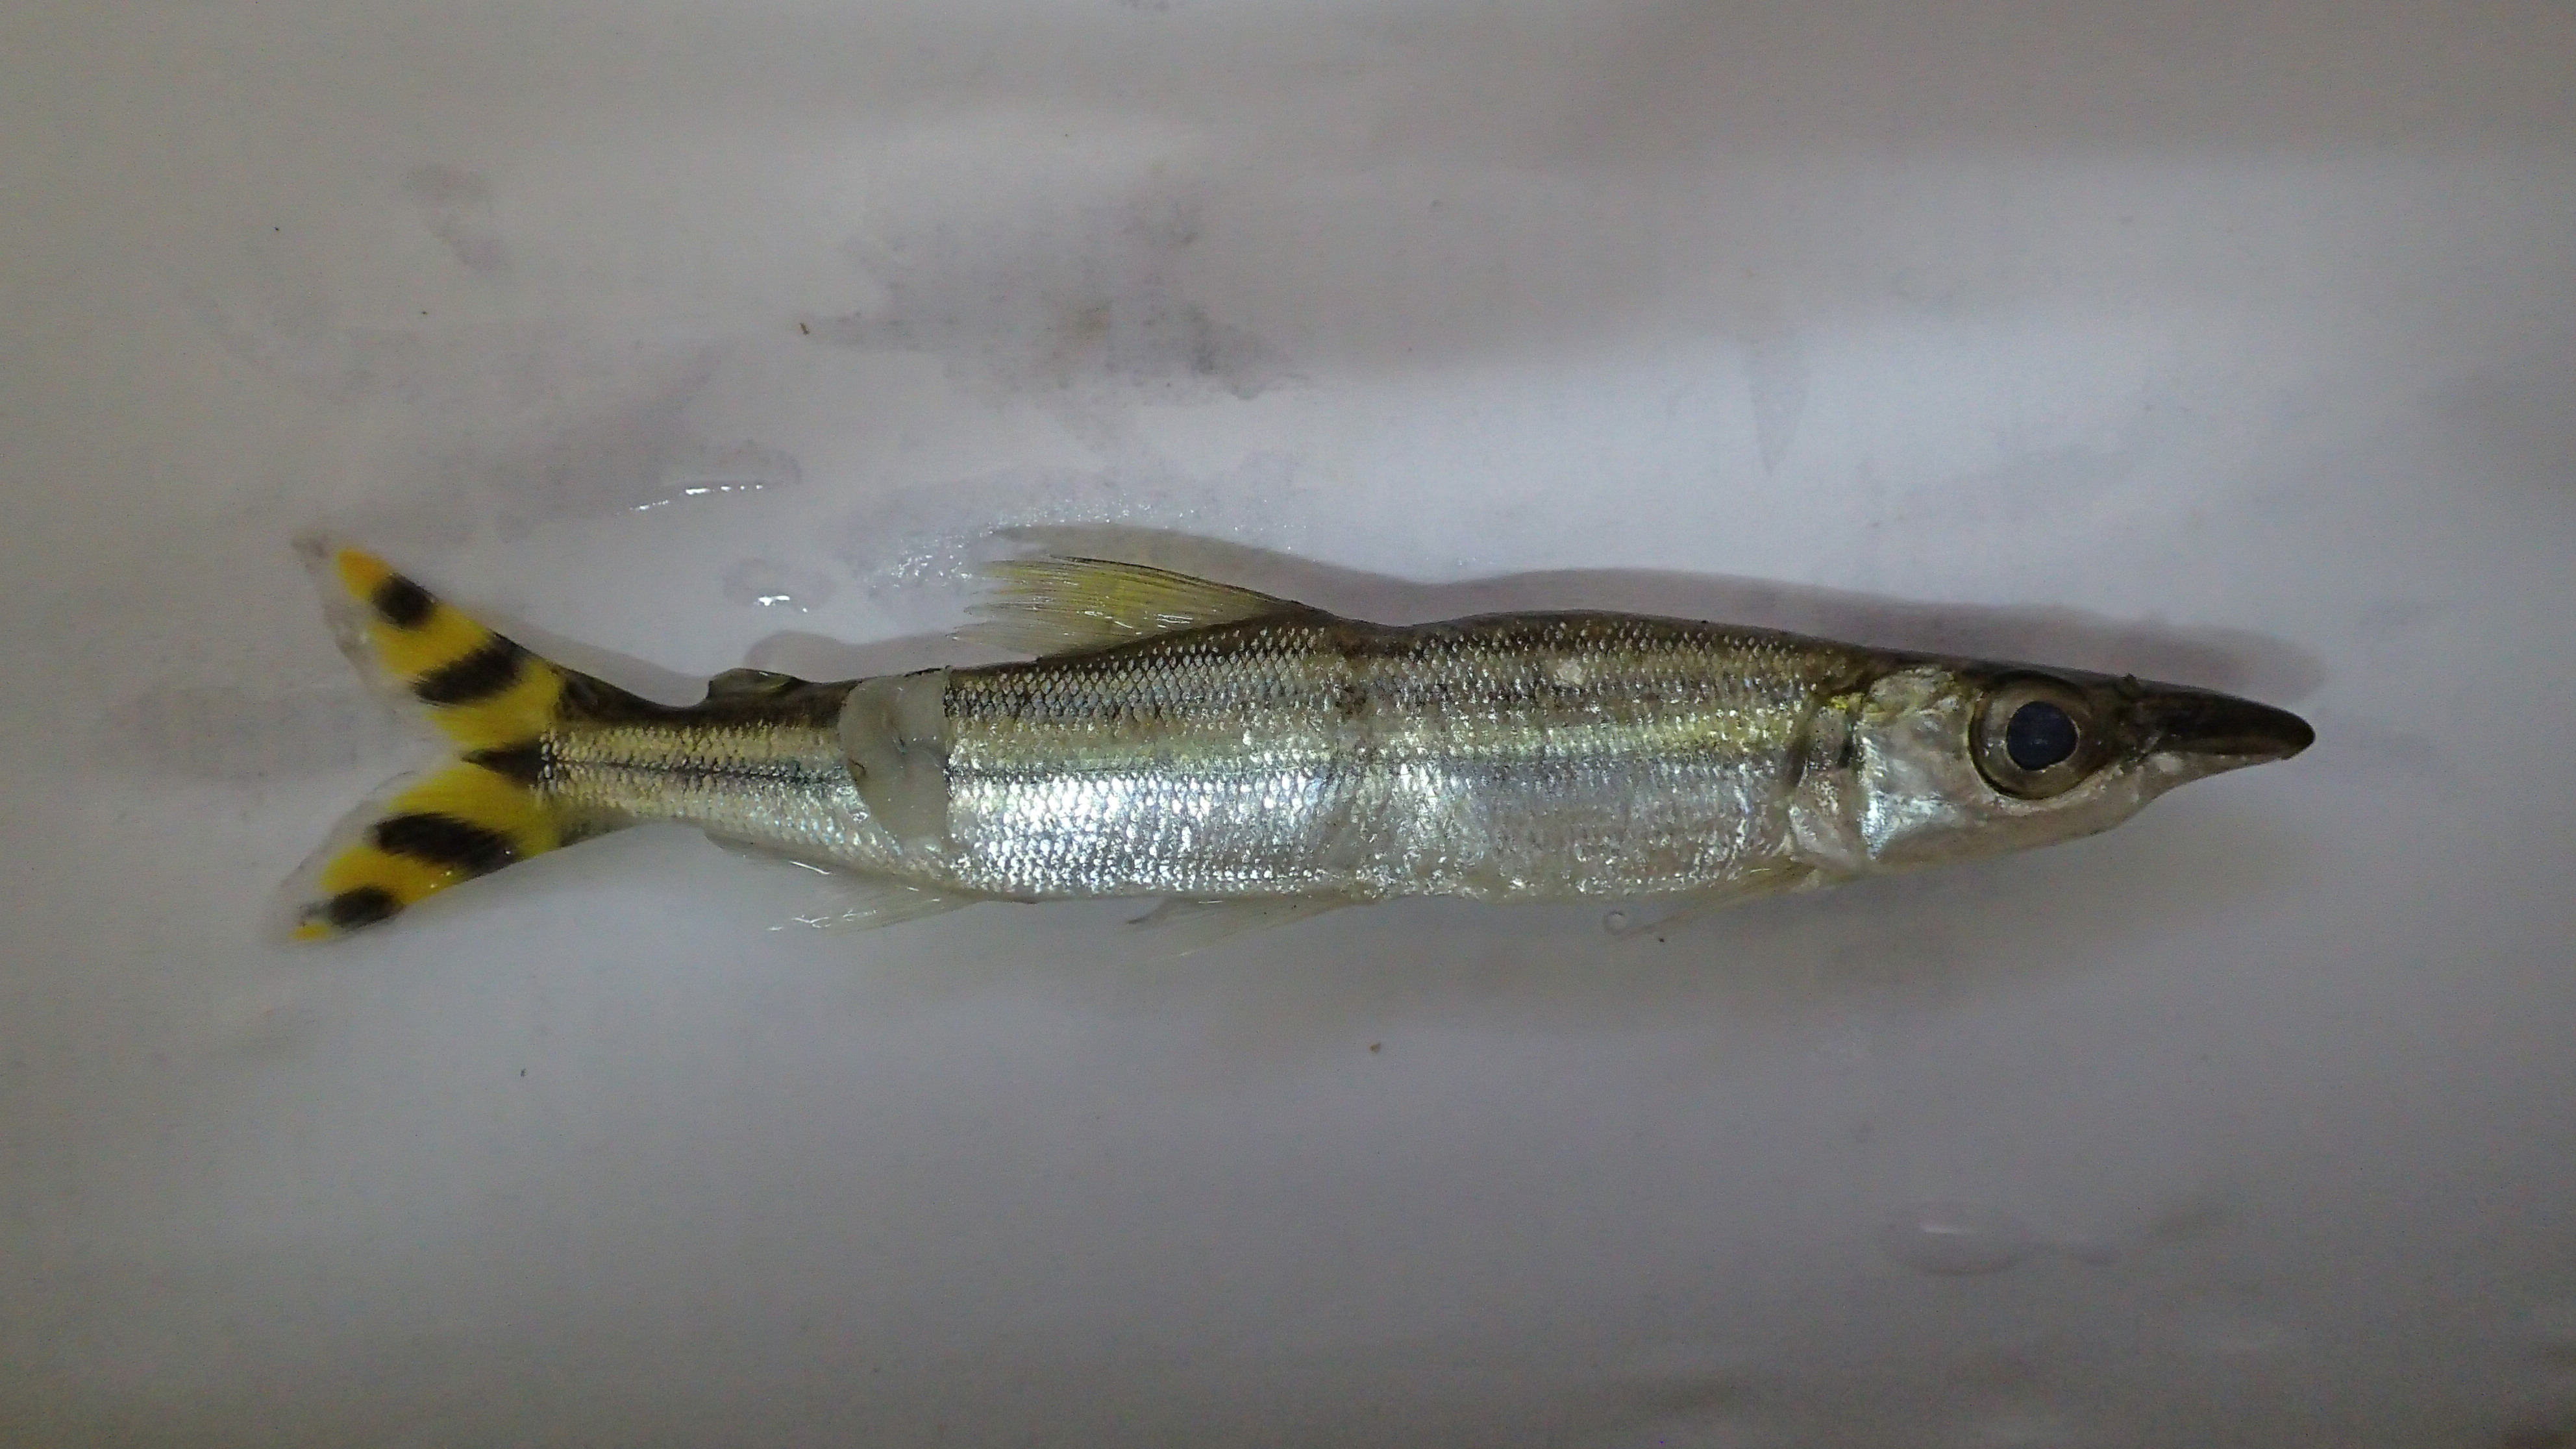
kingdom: Animalia
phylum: Chordata
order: Characiformes
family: Distichodontidae
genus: Ichthyborus
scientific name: Ichthyborus quadrilineatus
